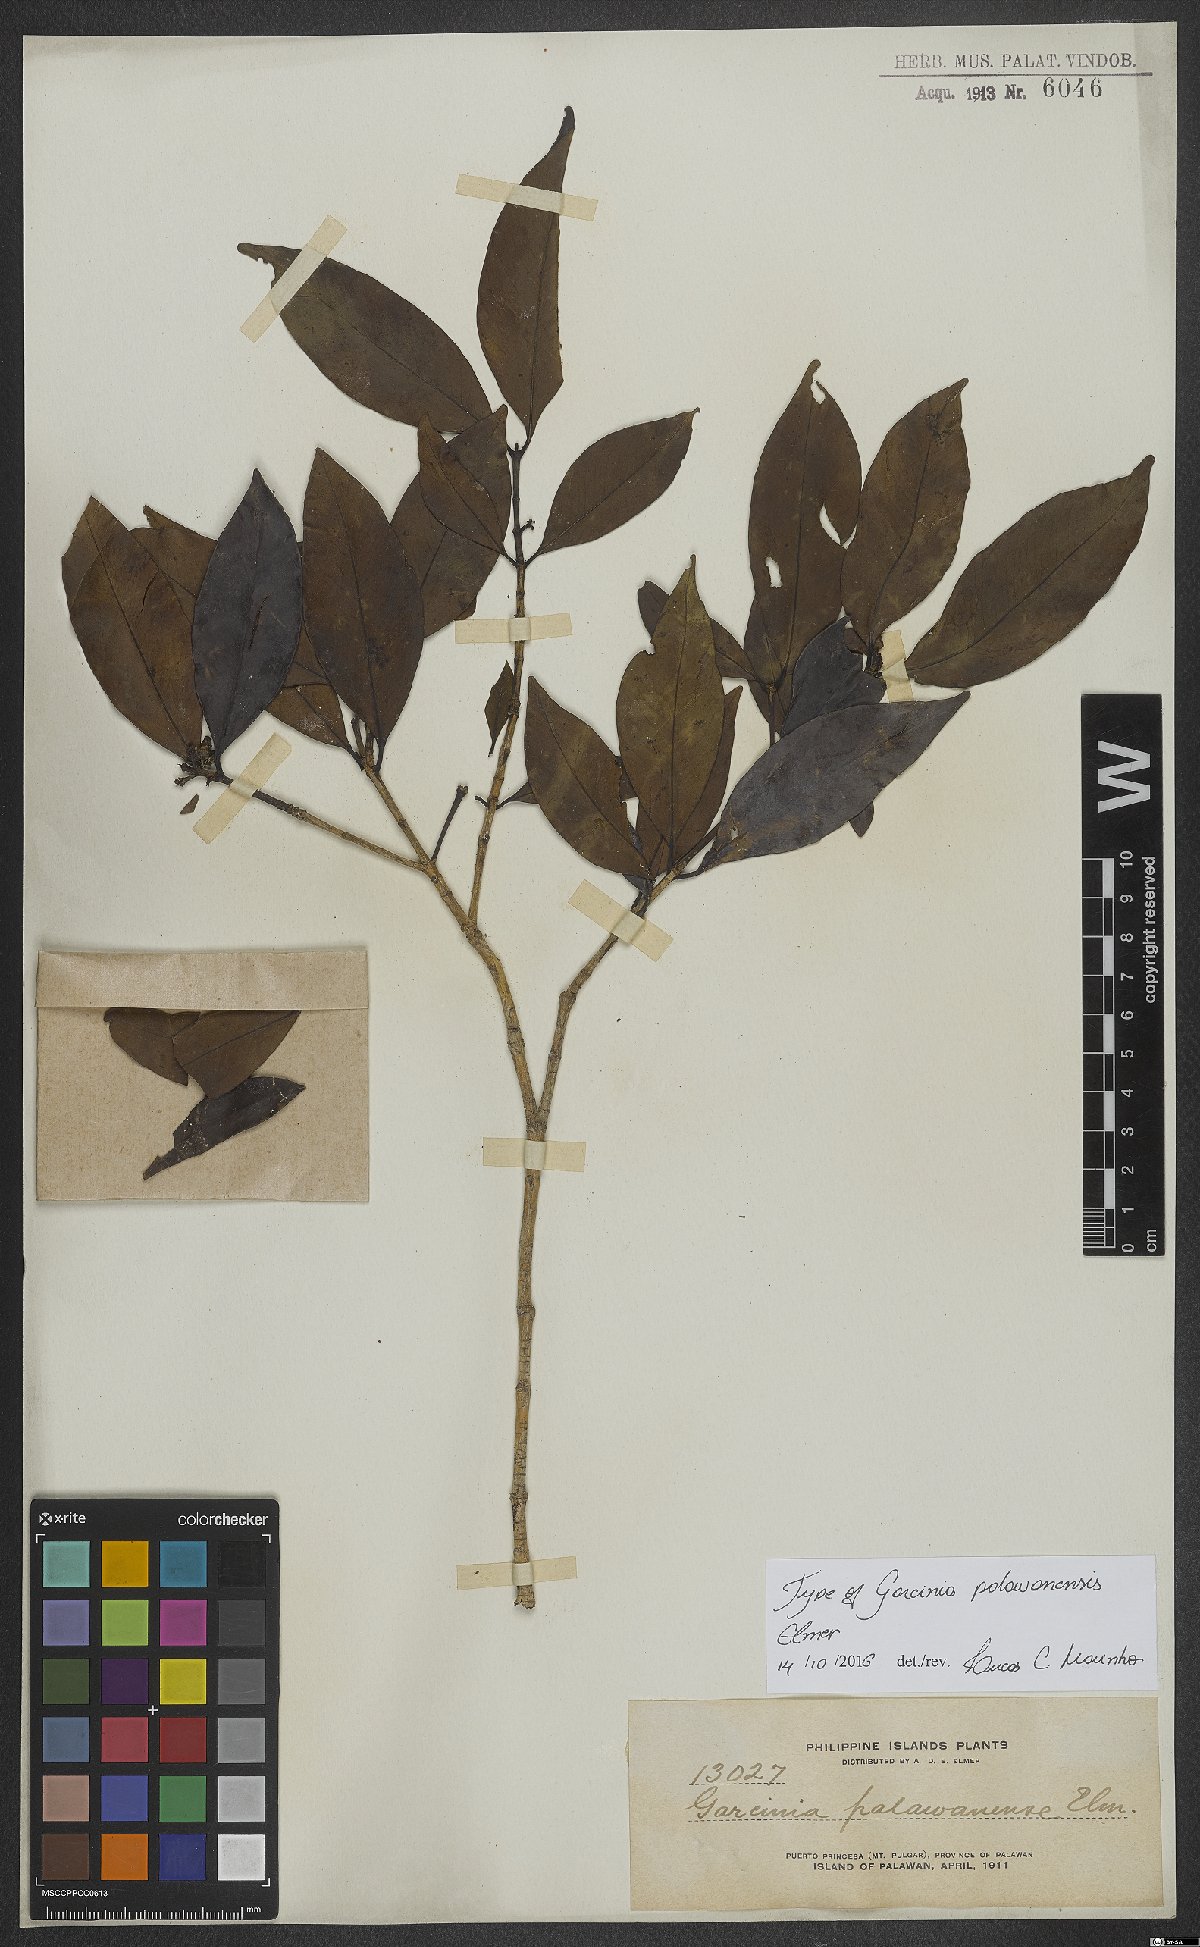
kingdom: Plantae
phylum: Tracheophyta
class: Magnoliopsida
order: Malpighiales
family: Clusiaceae
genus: Garcinia
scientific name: Garcinia dives
